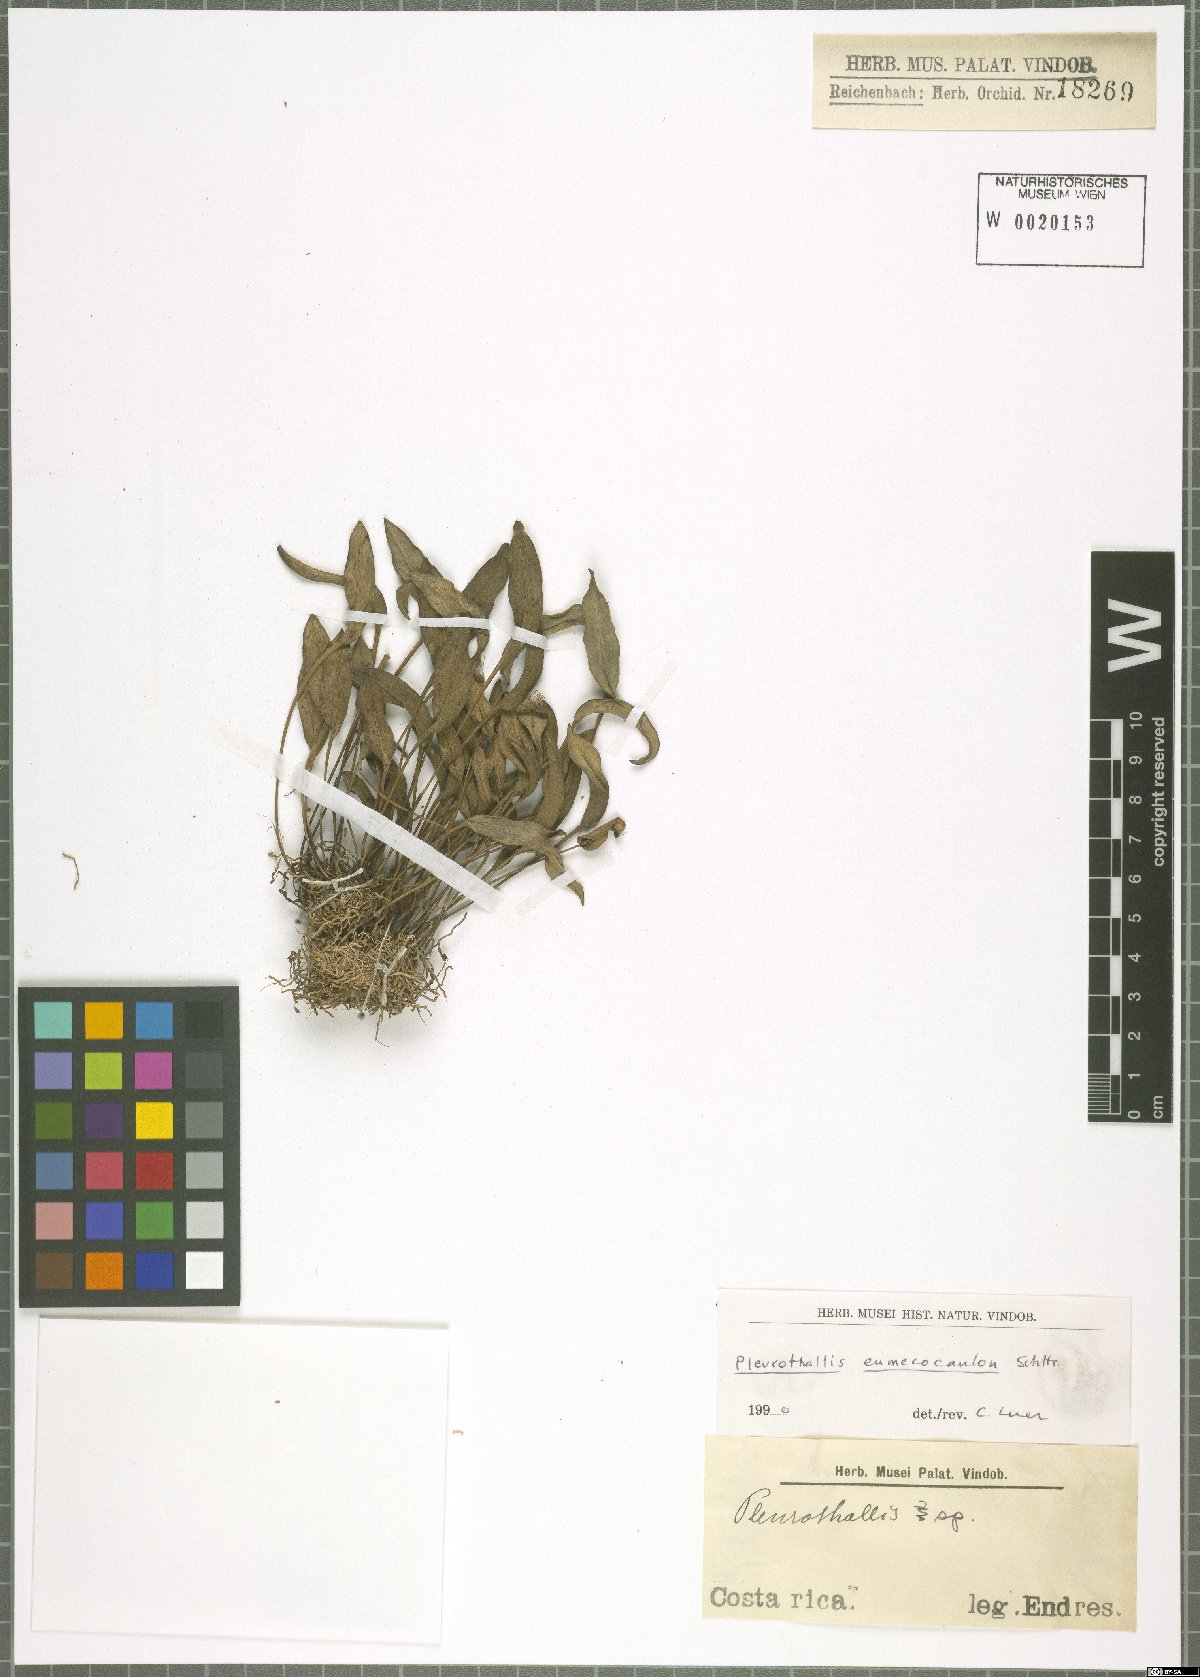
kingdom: Plantae
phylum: Tracheophyta
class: Liliopsida
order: Asparagales
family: Orchidaceae
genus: Pleurothallis
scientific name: Pleurothallis eumecocaulon
